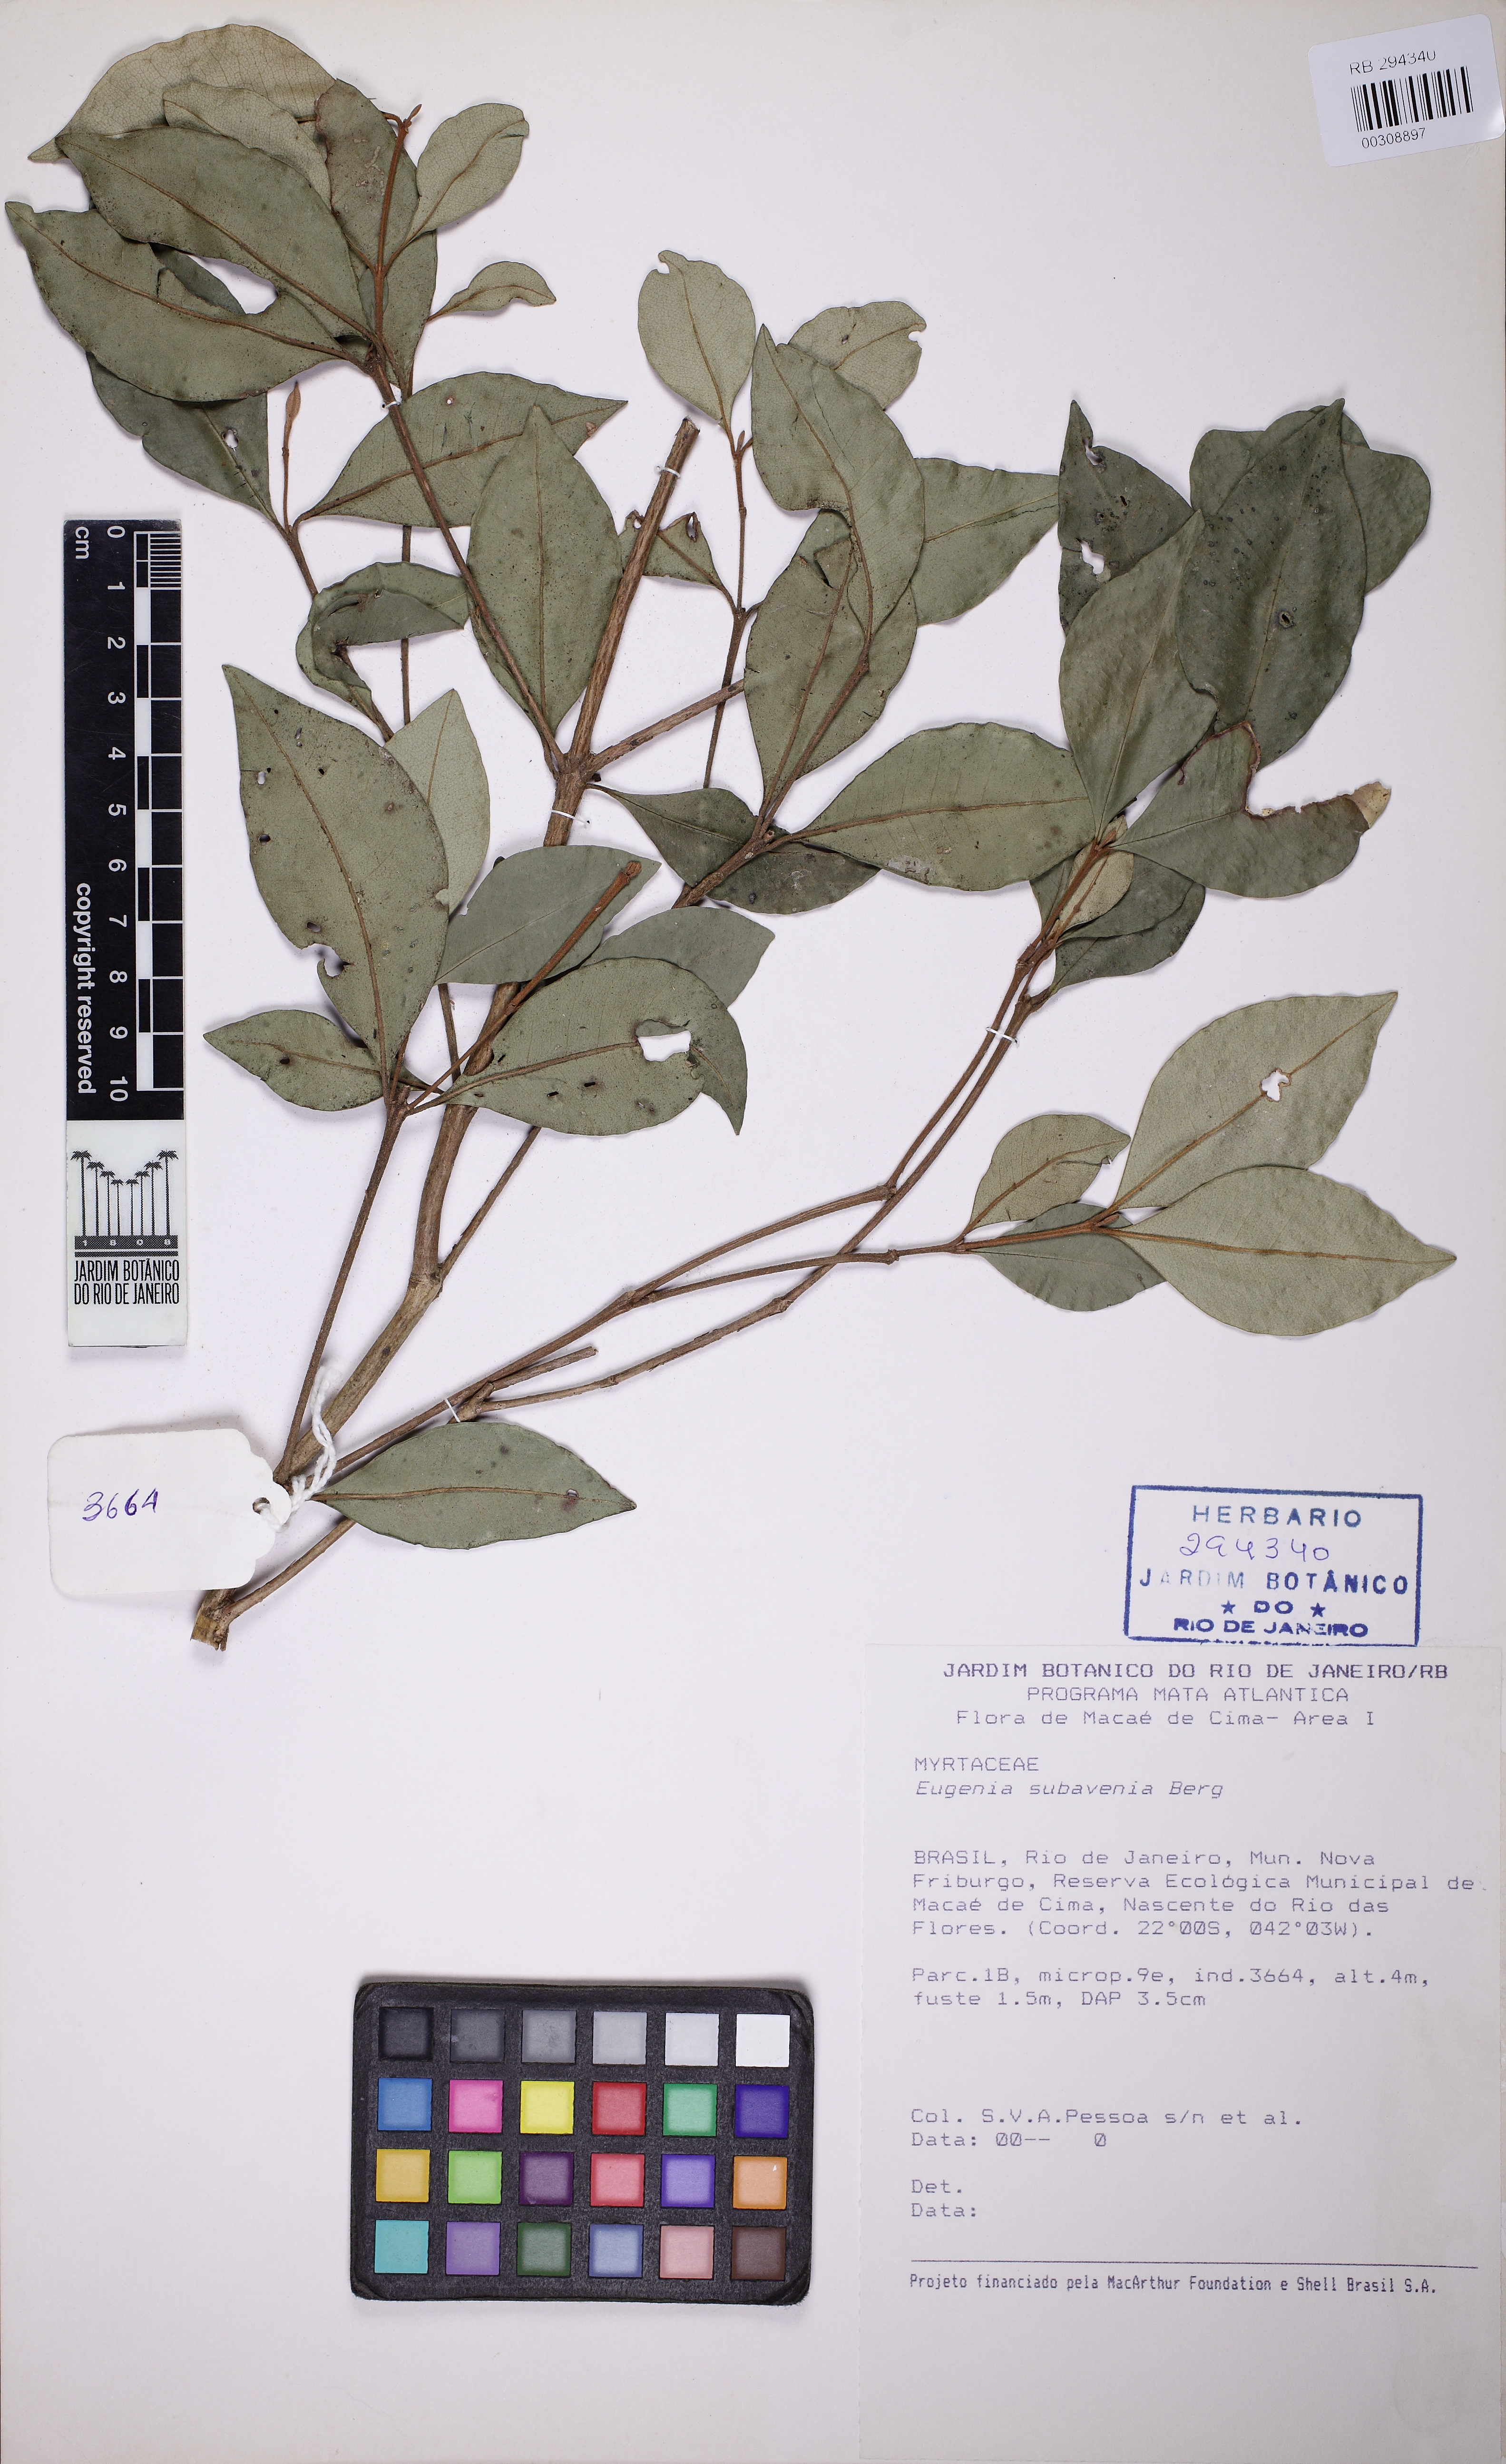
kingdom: Plantae
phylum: Tracheophyta
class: Magnoliopsida
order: Myrtales
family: Myrtaceae
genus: Eugenia
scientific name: Eugenia subavenia
